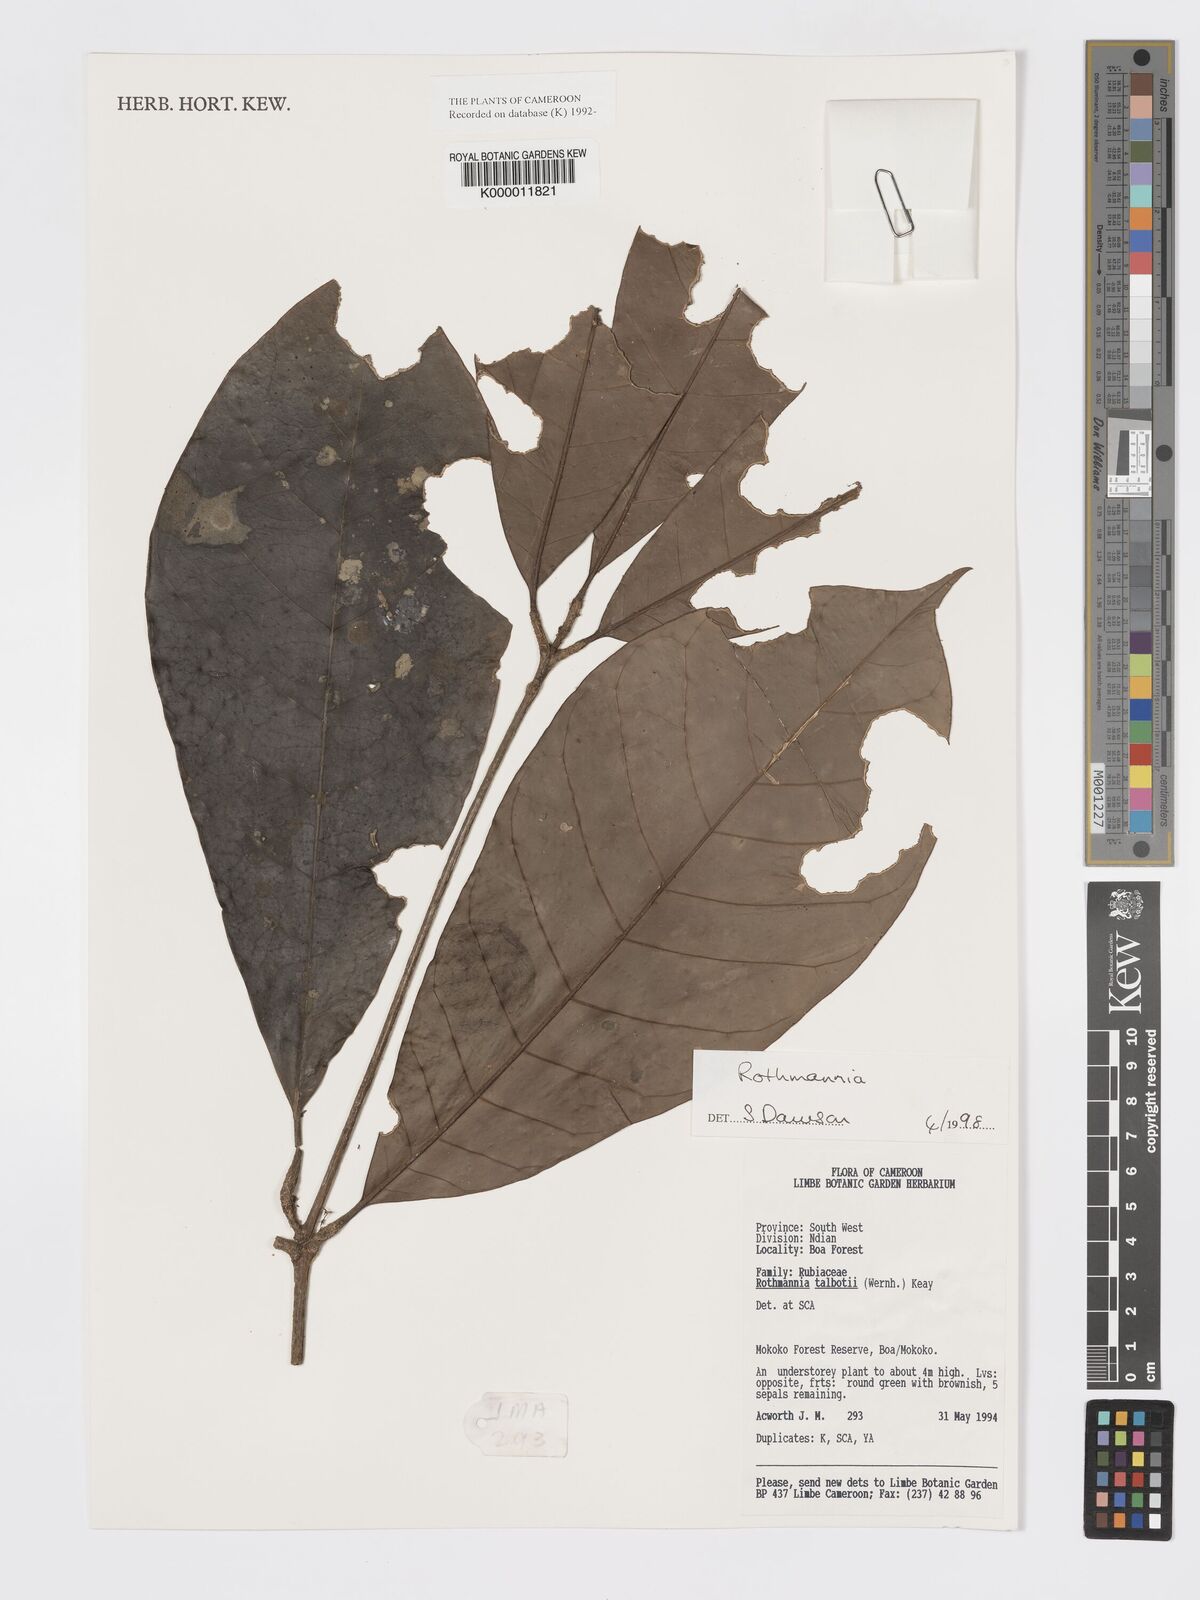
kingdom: Plantae
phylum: Tracheophyta
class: Magnoliopsida
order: Gentianales
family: Rubiaceae
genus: Rothmannia
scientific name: Rothmannia
